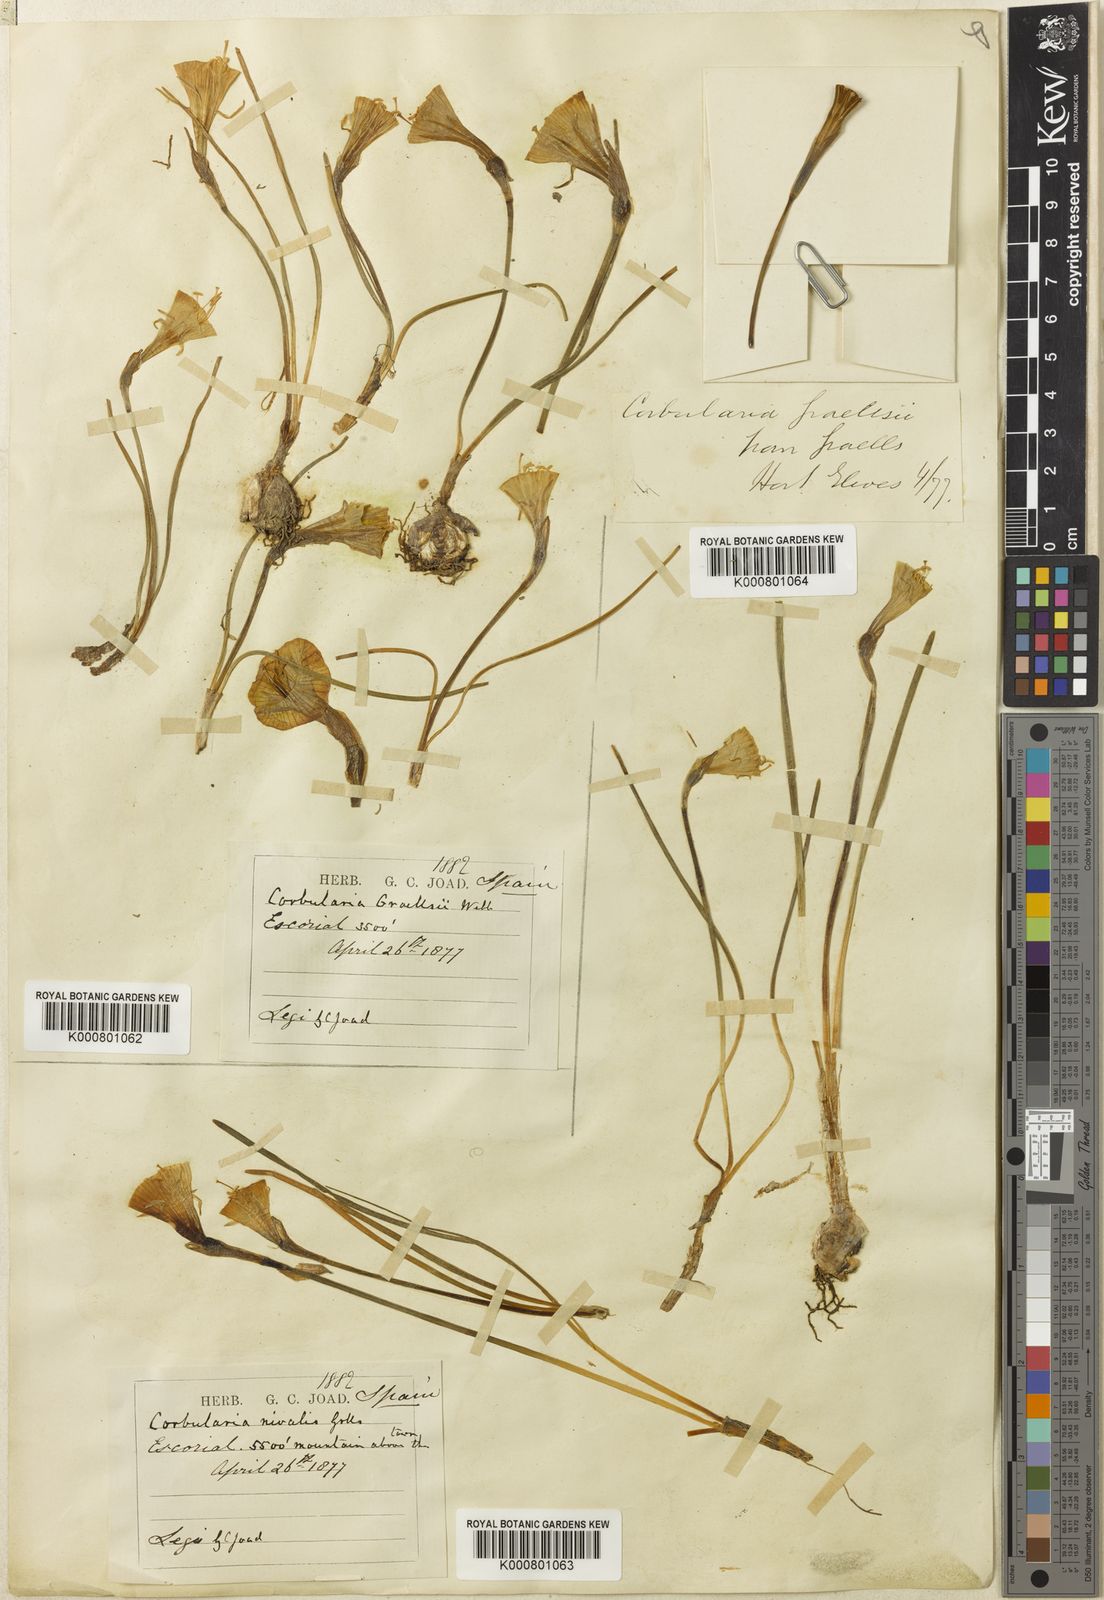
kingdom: Plantae
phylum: Tracheophyta
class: Liliopsida
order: Asparagales
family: Amaryllidaceae
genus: Narcissus
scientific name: Narcissus bulbocodium
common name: Hoop-petticoat daffodil
